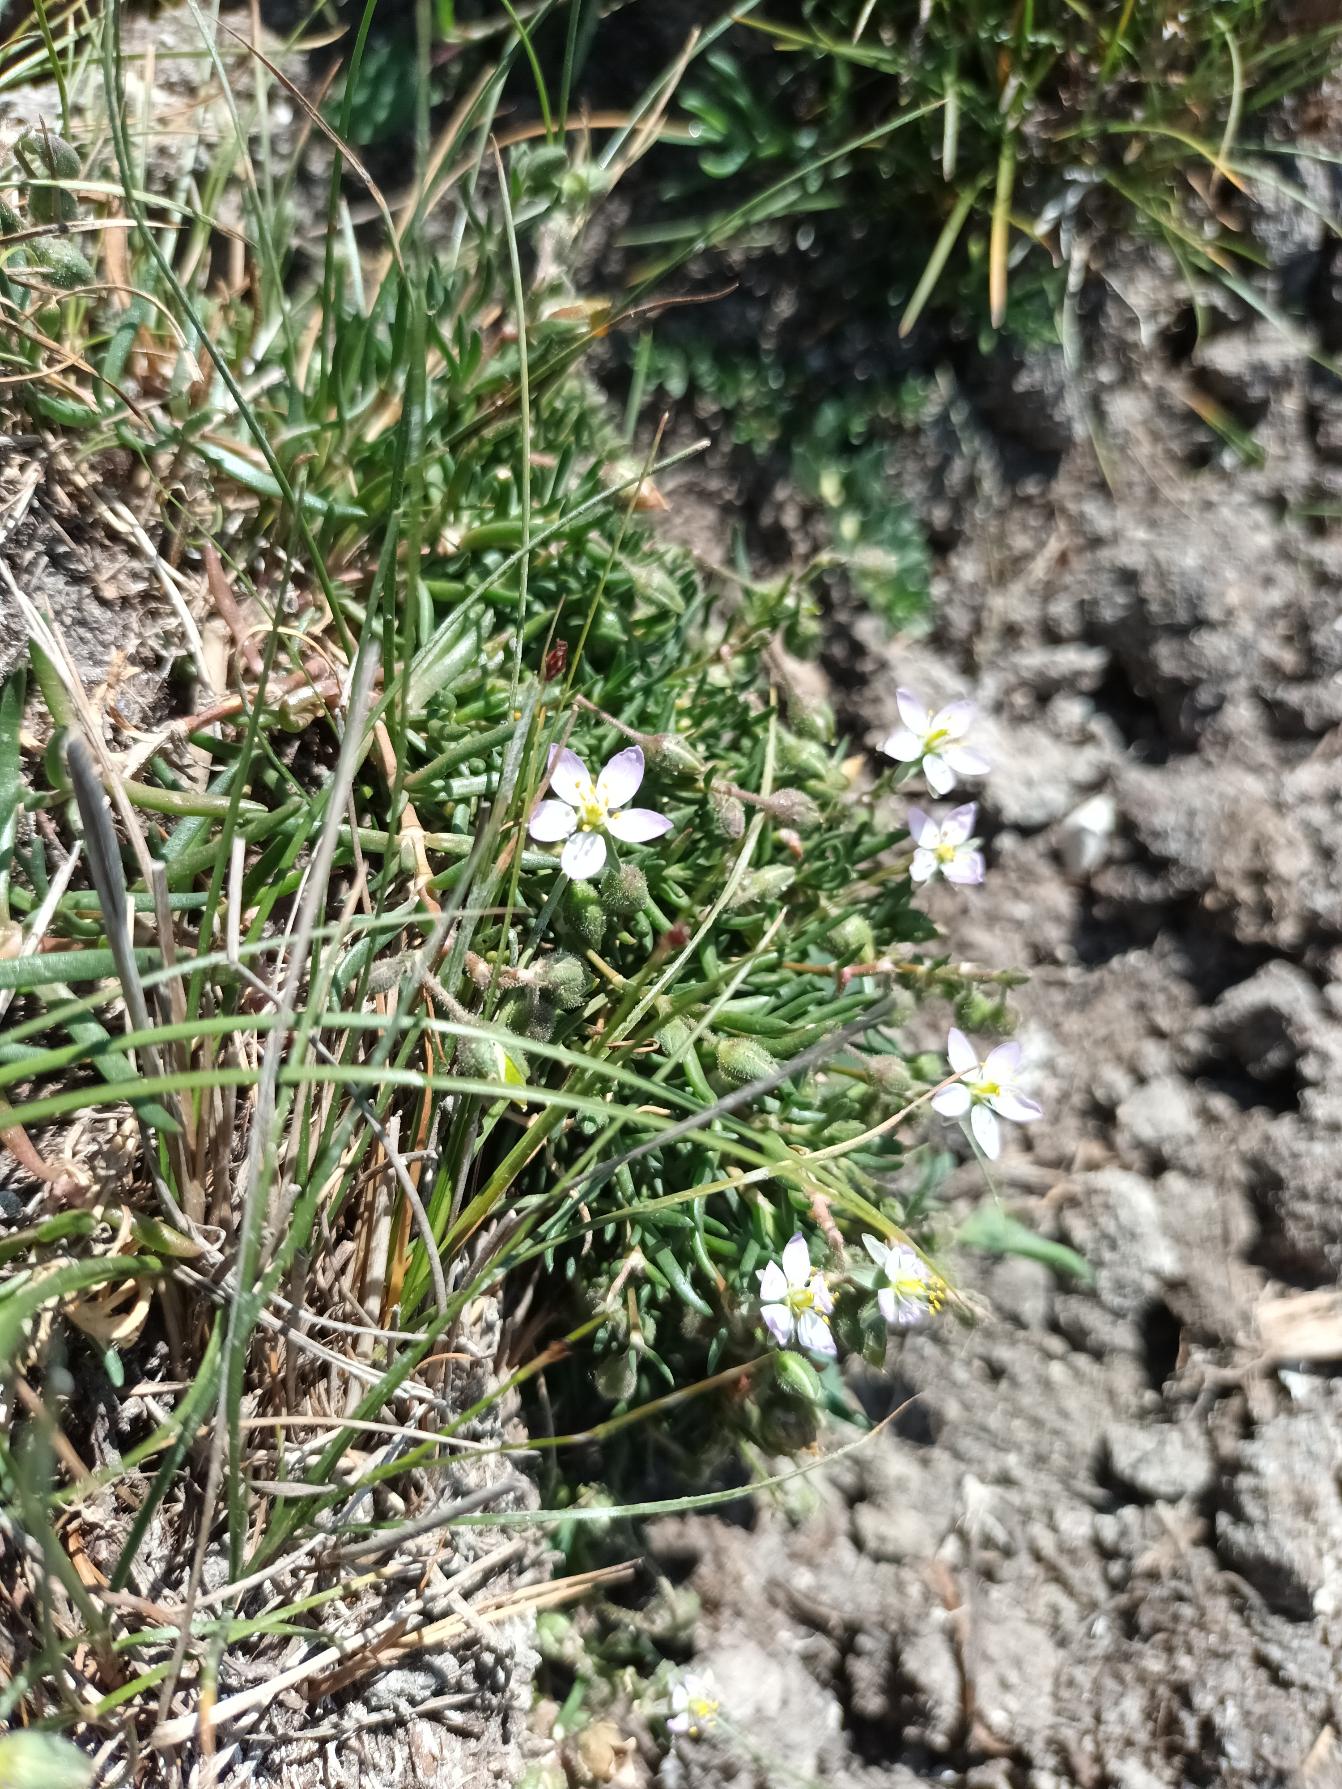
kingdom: Plantae
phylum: Tracheophyta
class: Magnoliopsida
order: Caryophyllales
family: Caryophyllaceae
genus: Spergularia
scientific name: Spergularia media
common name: Vingefrøet hindeknæ
